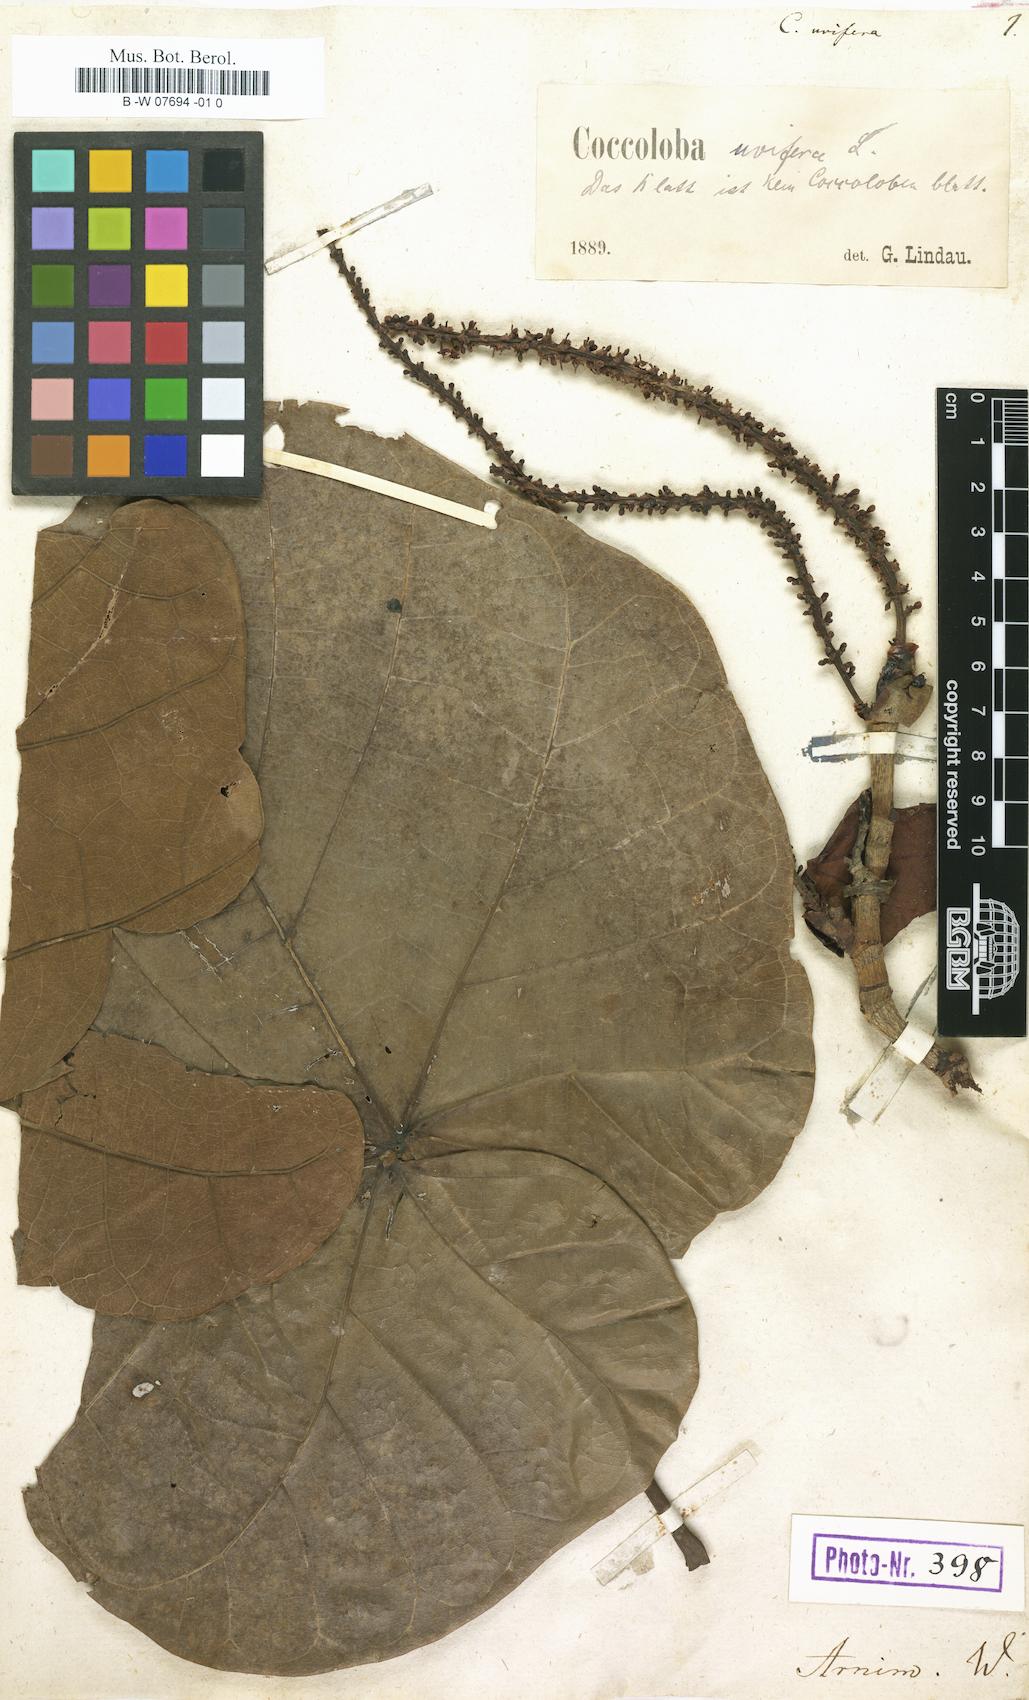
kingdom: Plantae
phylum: Tracheophyta
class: Magnoliopsida
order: Caryophyllales
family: Polygonaceae
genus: Coccoloba
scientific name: Coccoloba uvifera
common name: Seagrape
